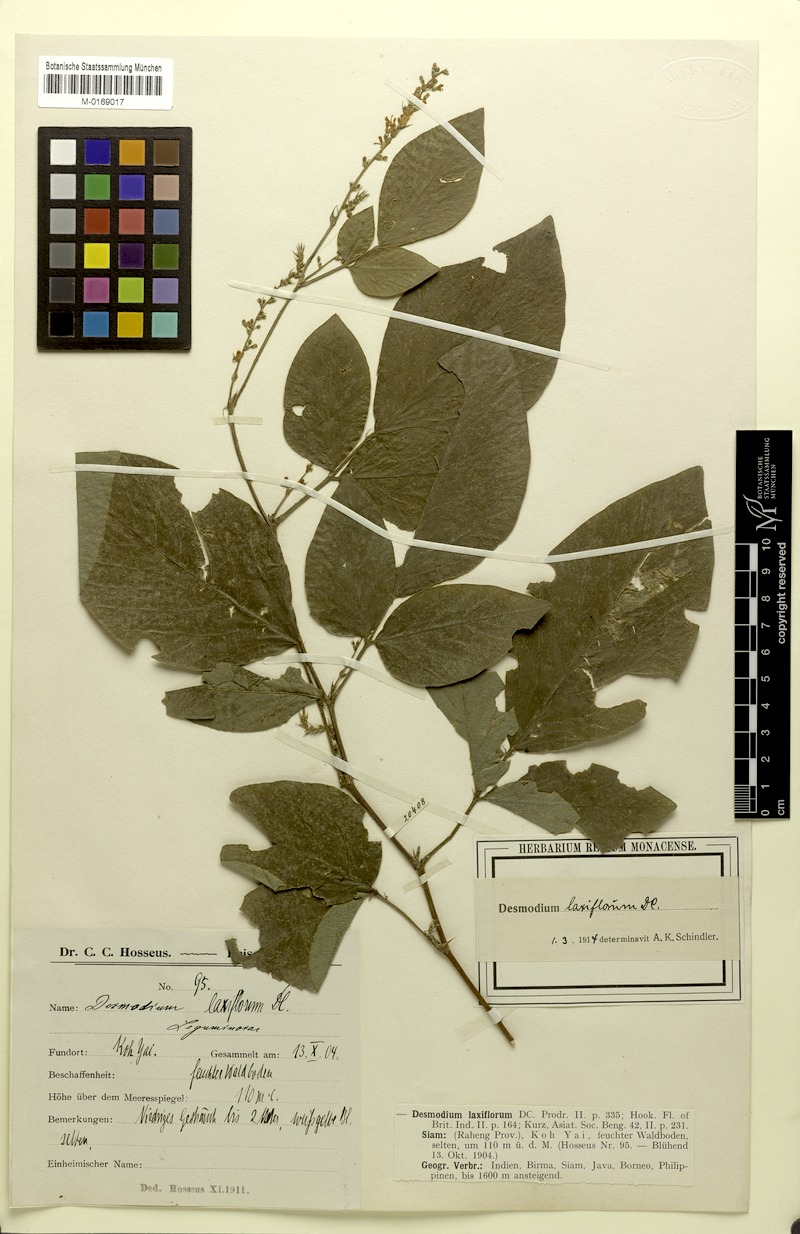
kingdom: Plantae
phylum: Tracheophyta
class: Magnoliopsida
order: Fabales
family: Fabaceae
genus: Sohmaea
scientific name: Sohmaea laxiflora
